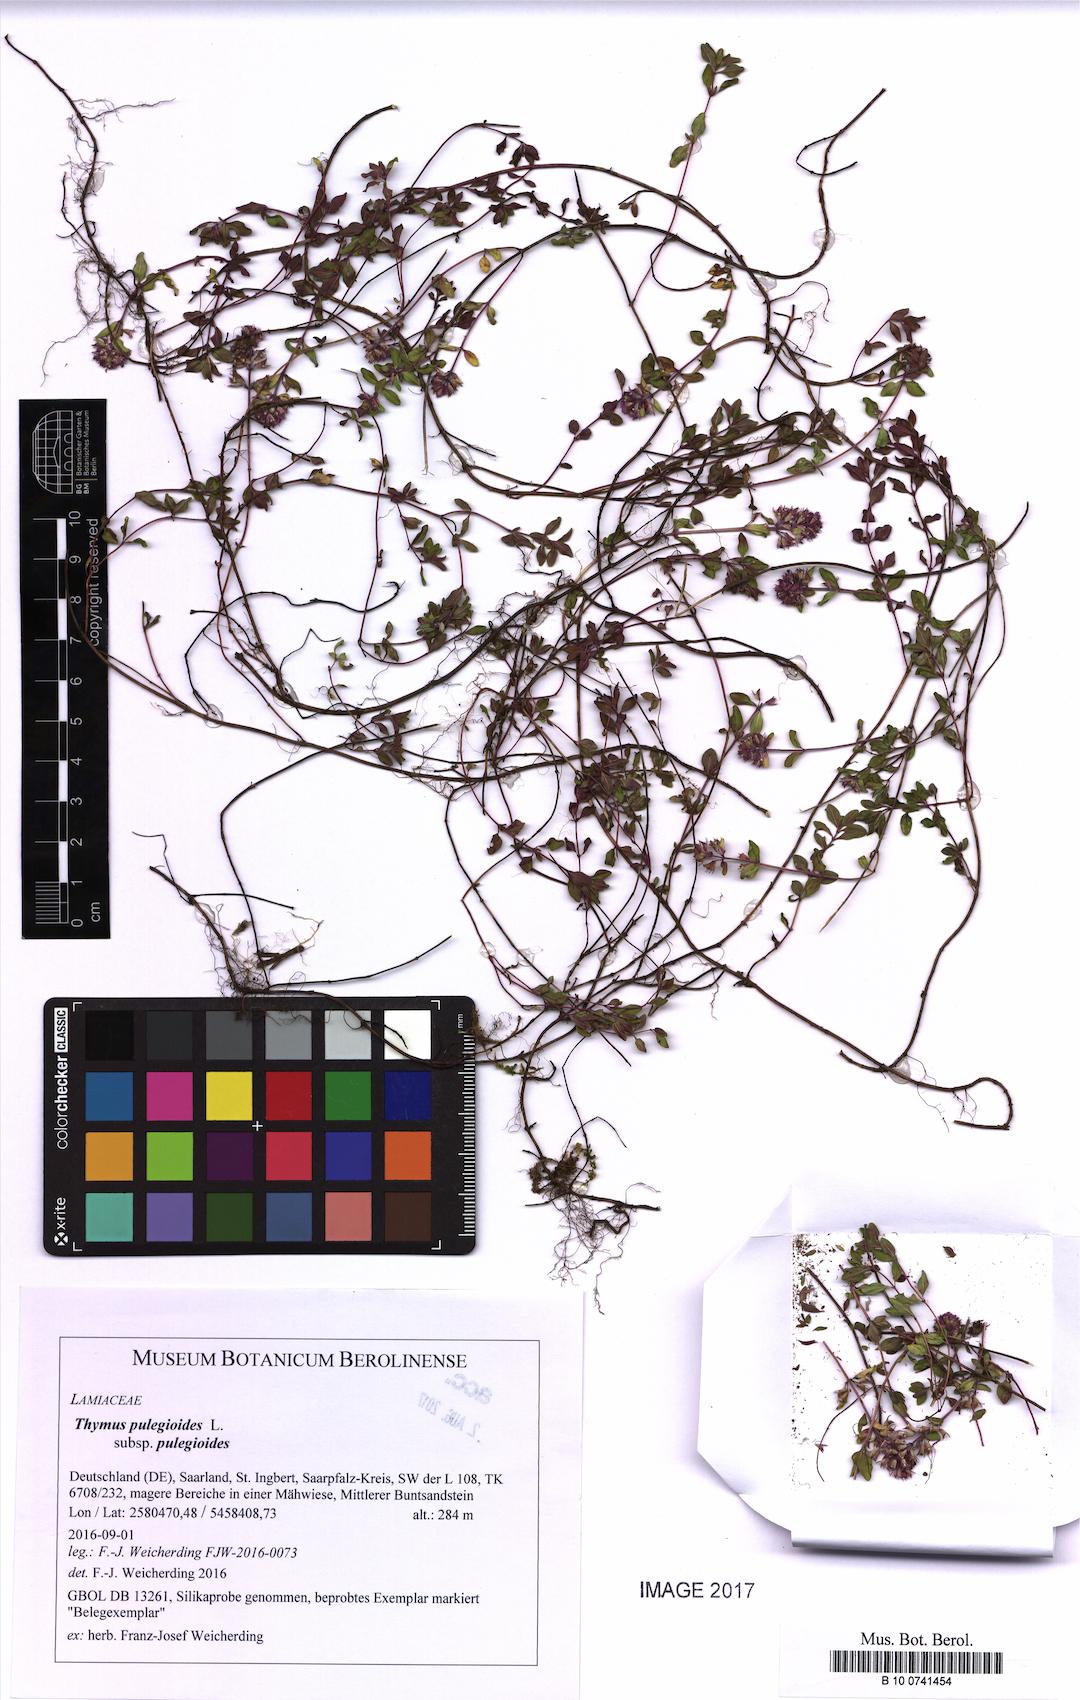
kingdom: Plantae
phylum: Tracheophyta
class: Magnoliopsida
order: Lamiales
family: Lamiaceae
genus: Thymus
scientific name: Thymus pulegioides
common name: Large thyme
